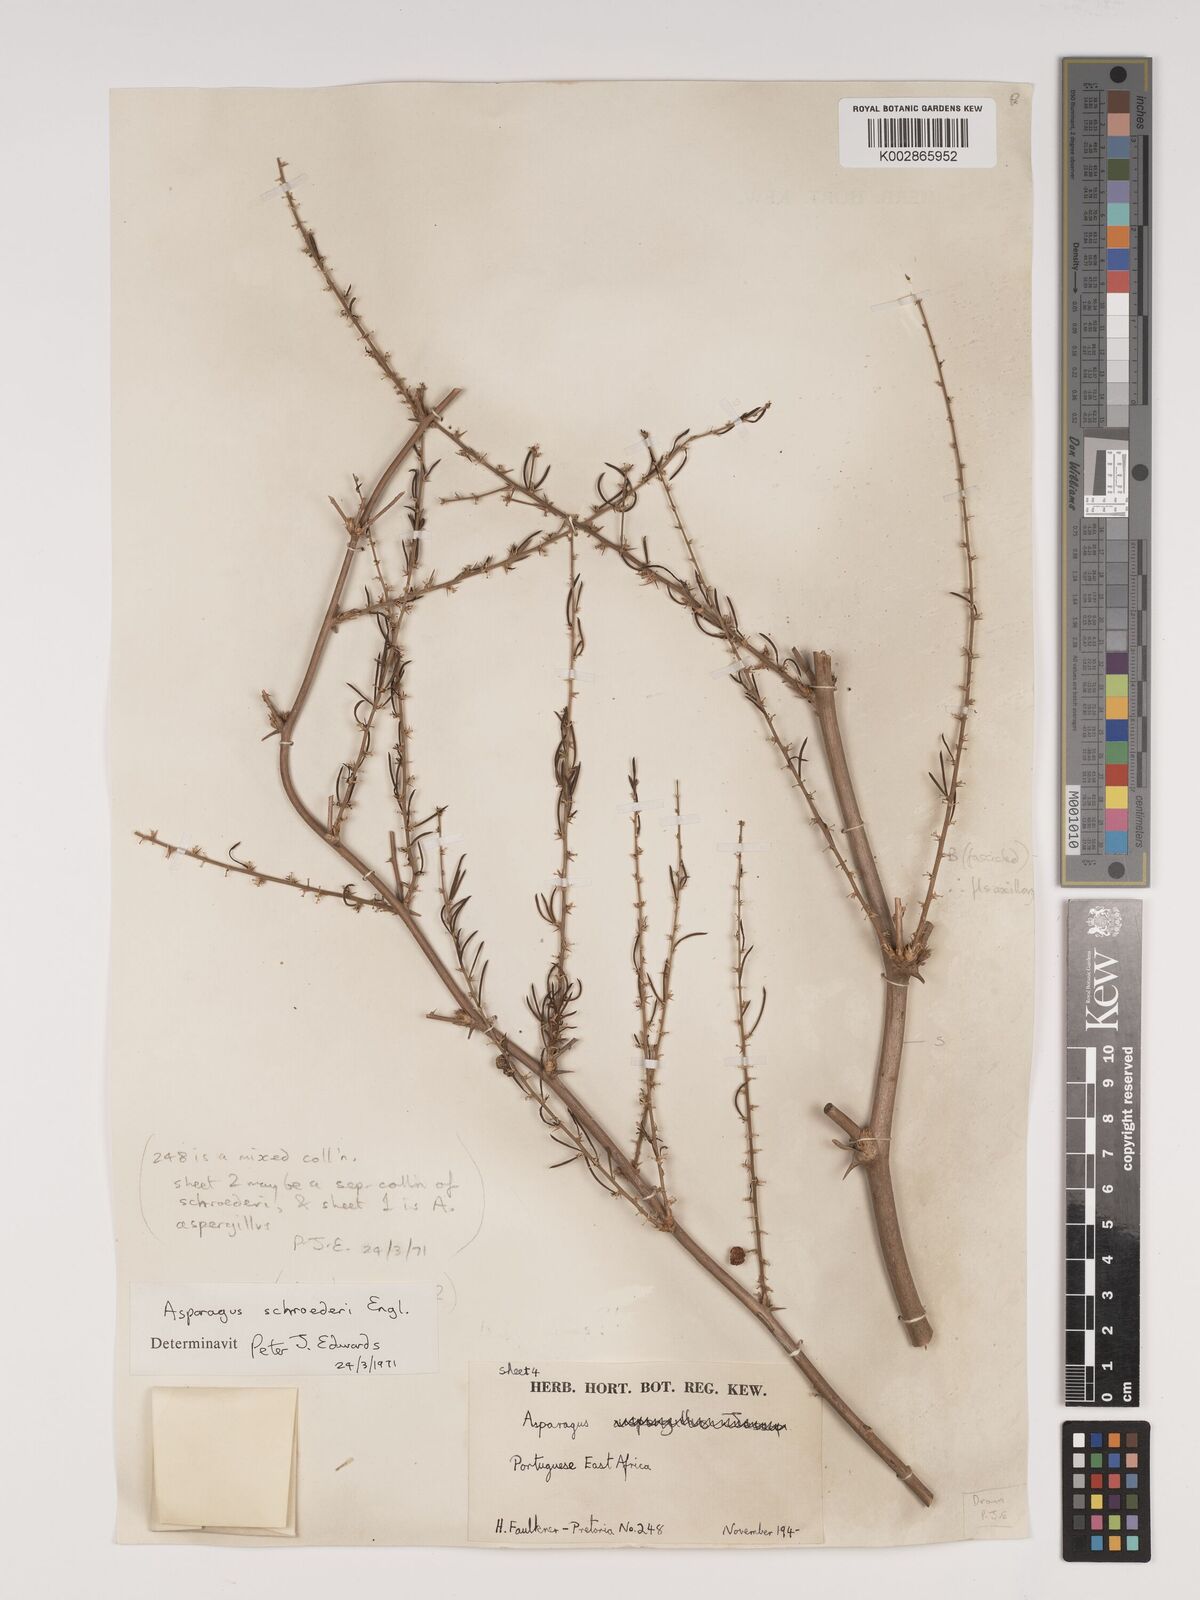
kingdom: Plantae
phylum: Tracheophyta
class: Liliopsida
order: Asparagales
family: Asparagaceae
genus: Asparagus
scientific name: Asparagus schroederi
